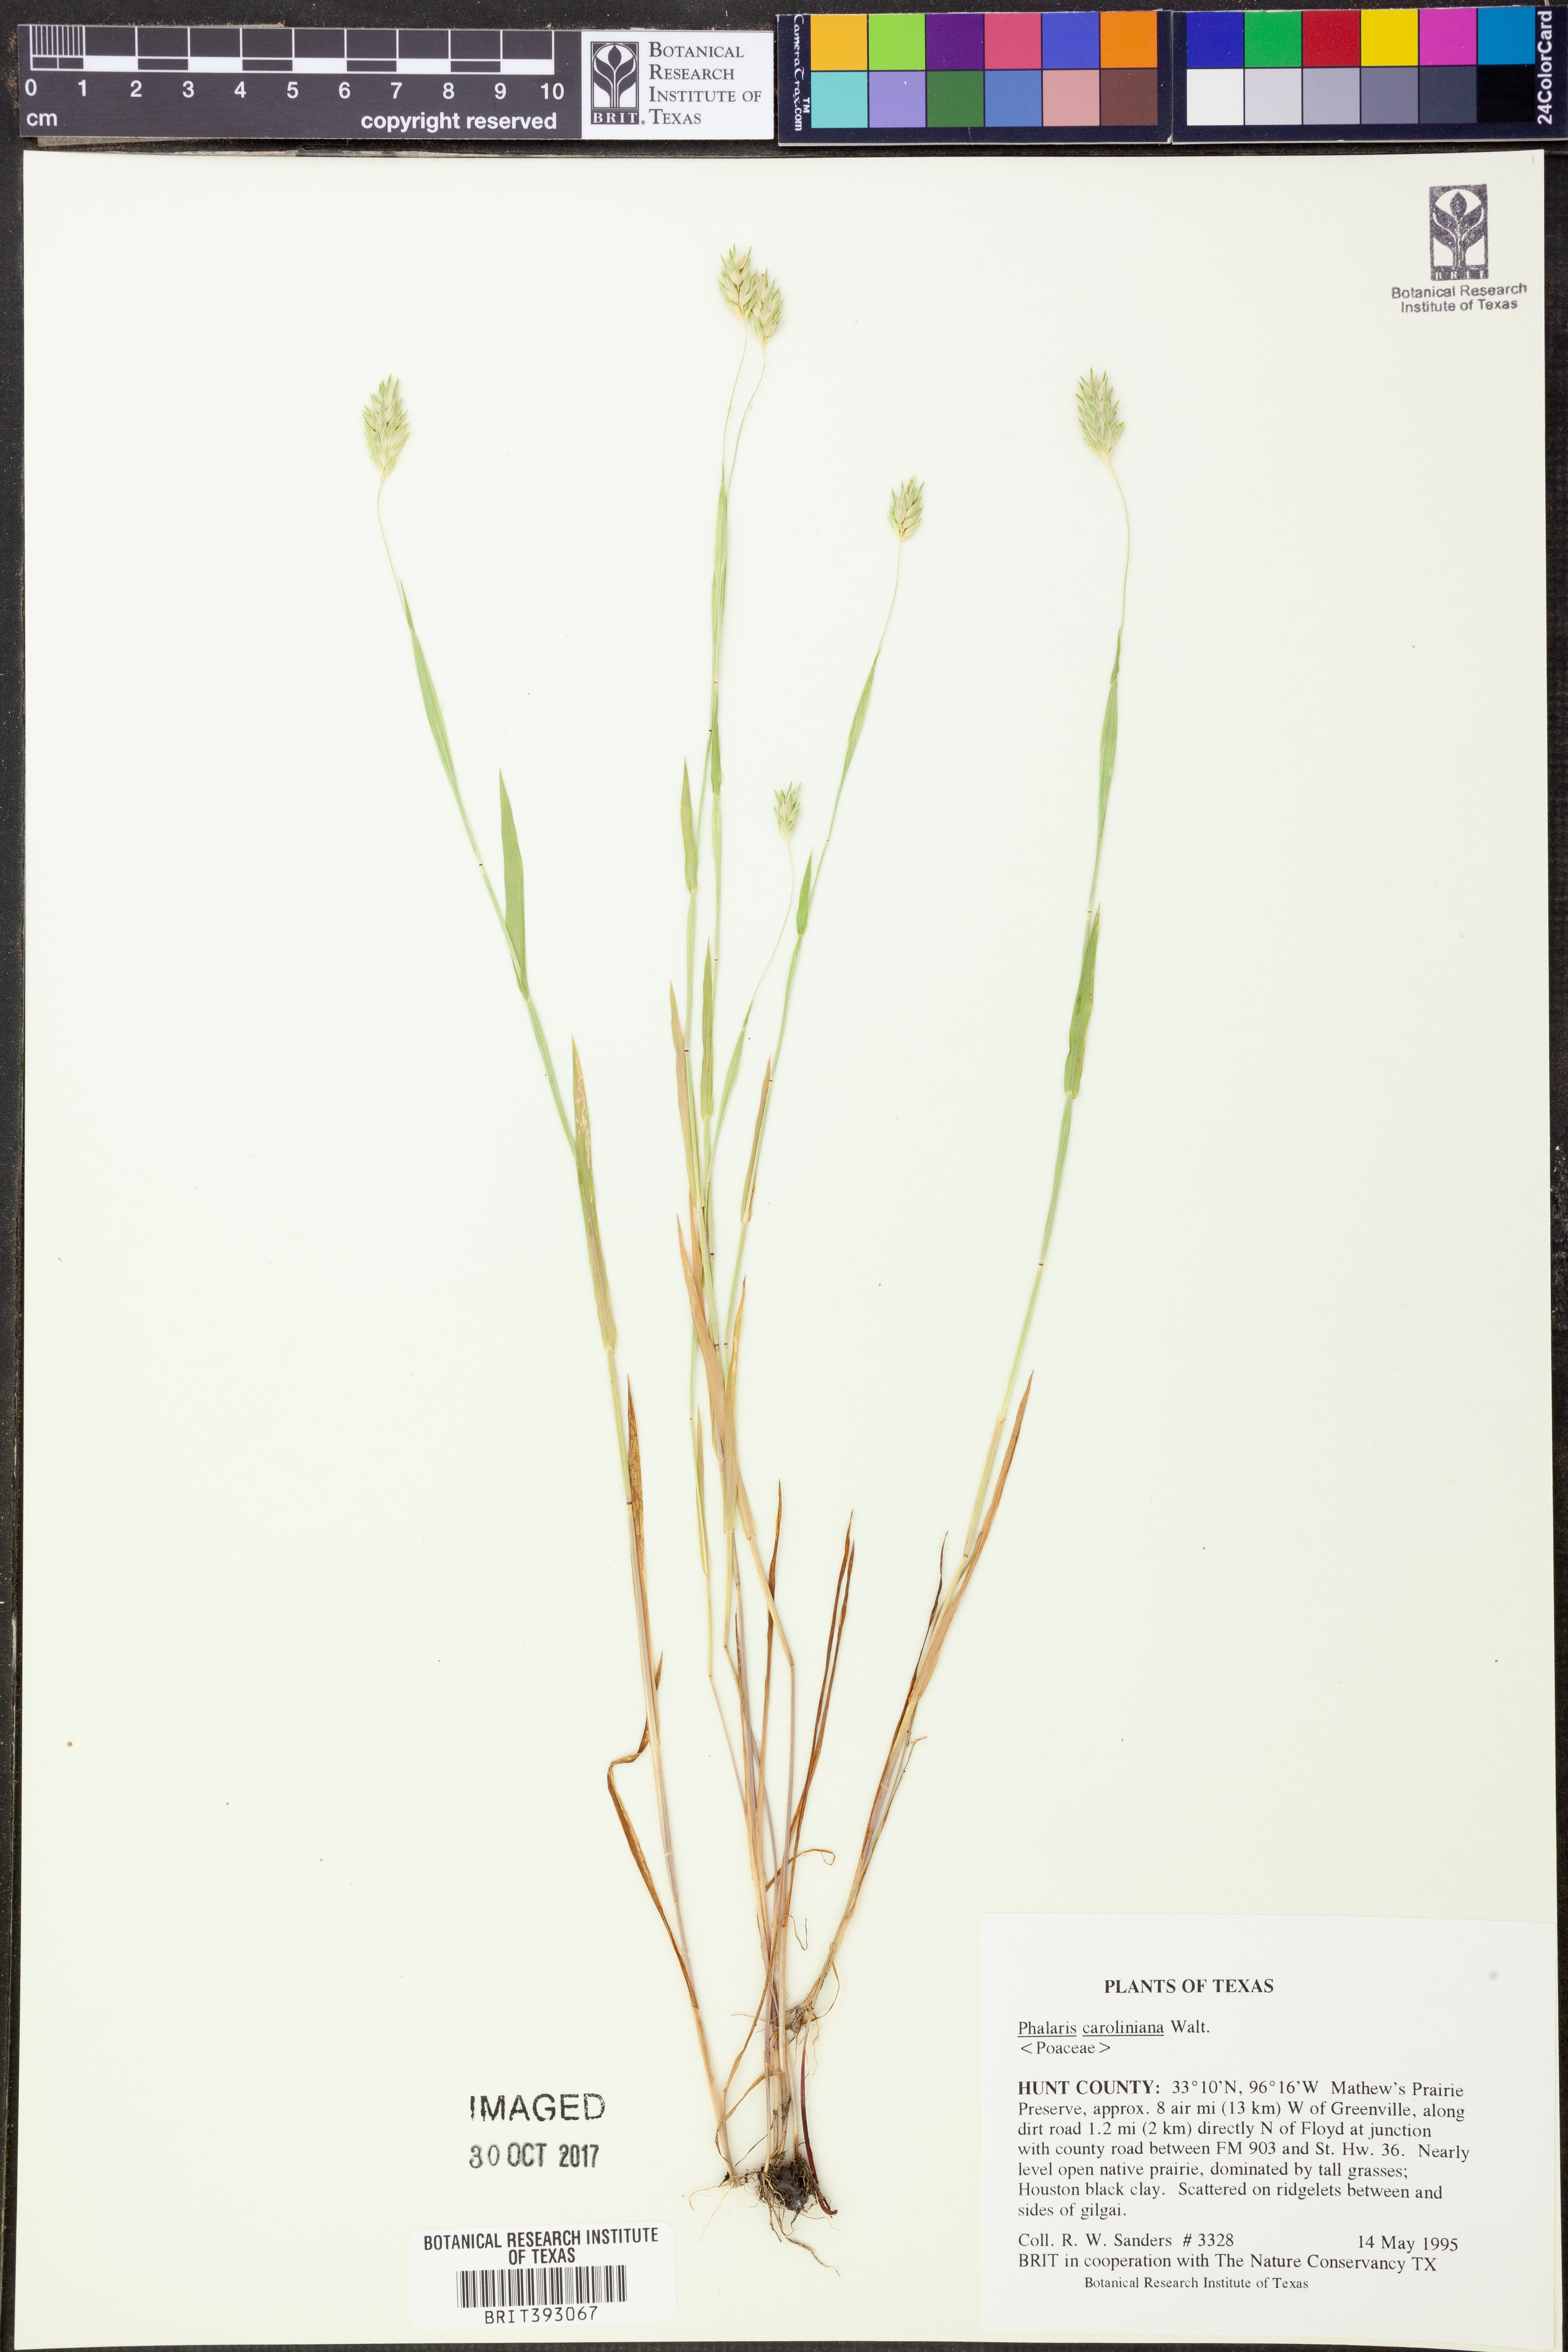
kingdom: Plantae
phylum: Tracheophyta
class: Liliopsida
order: Poales
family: Poaceae
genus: Phalaris
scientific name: Phalaris caroliniana
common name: May grass
